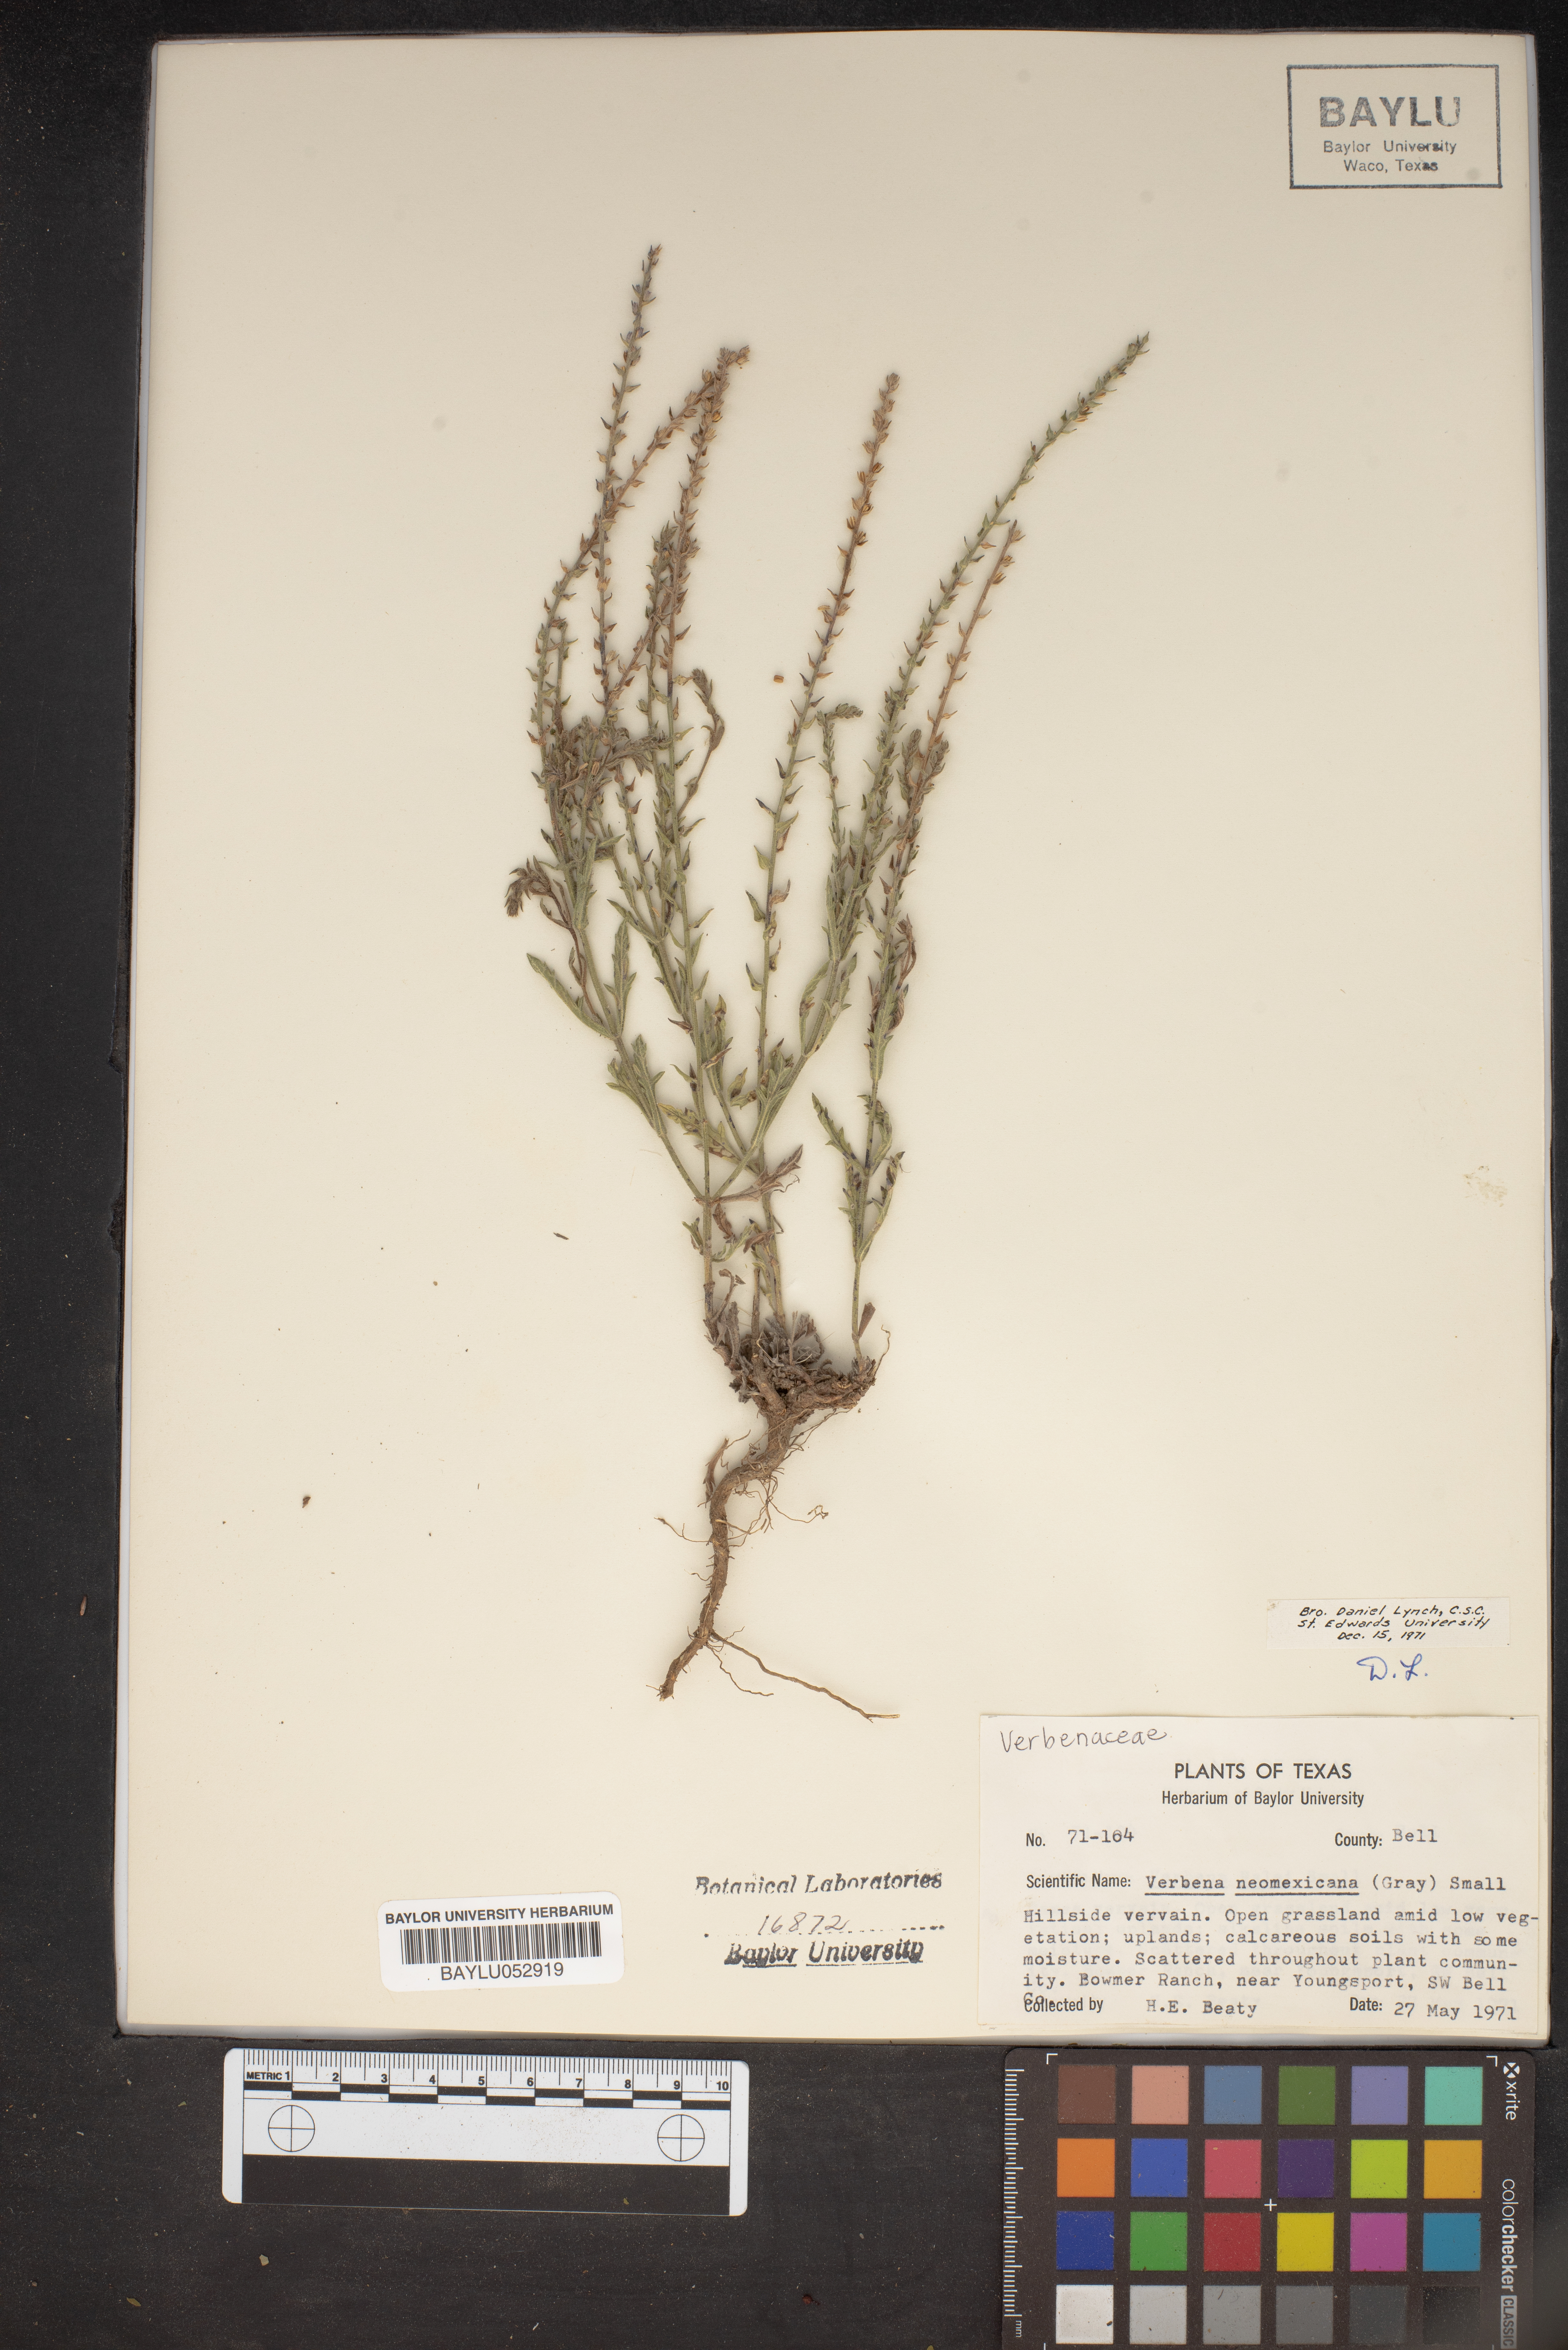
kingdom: Plantae
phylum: Tracheophyta
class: Magnoliopsida
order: Lamiales
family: Verbenaceae
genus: Verbena
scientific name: Verbena neomexicana
